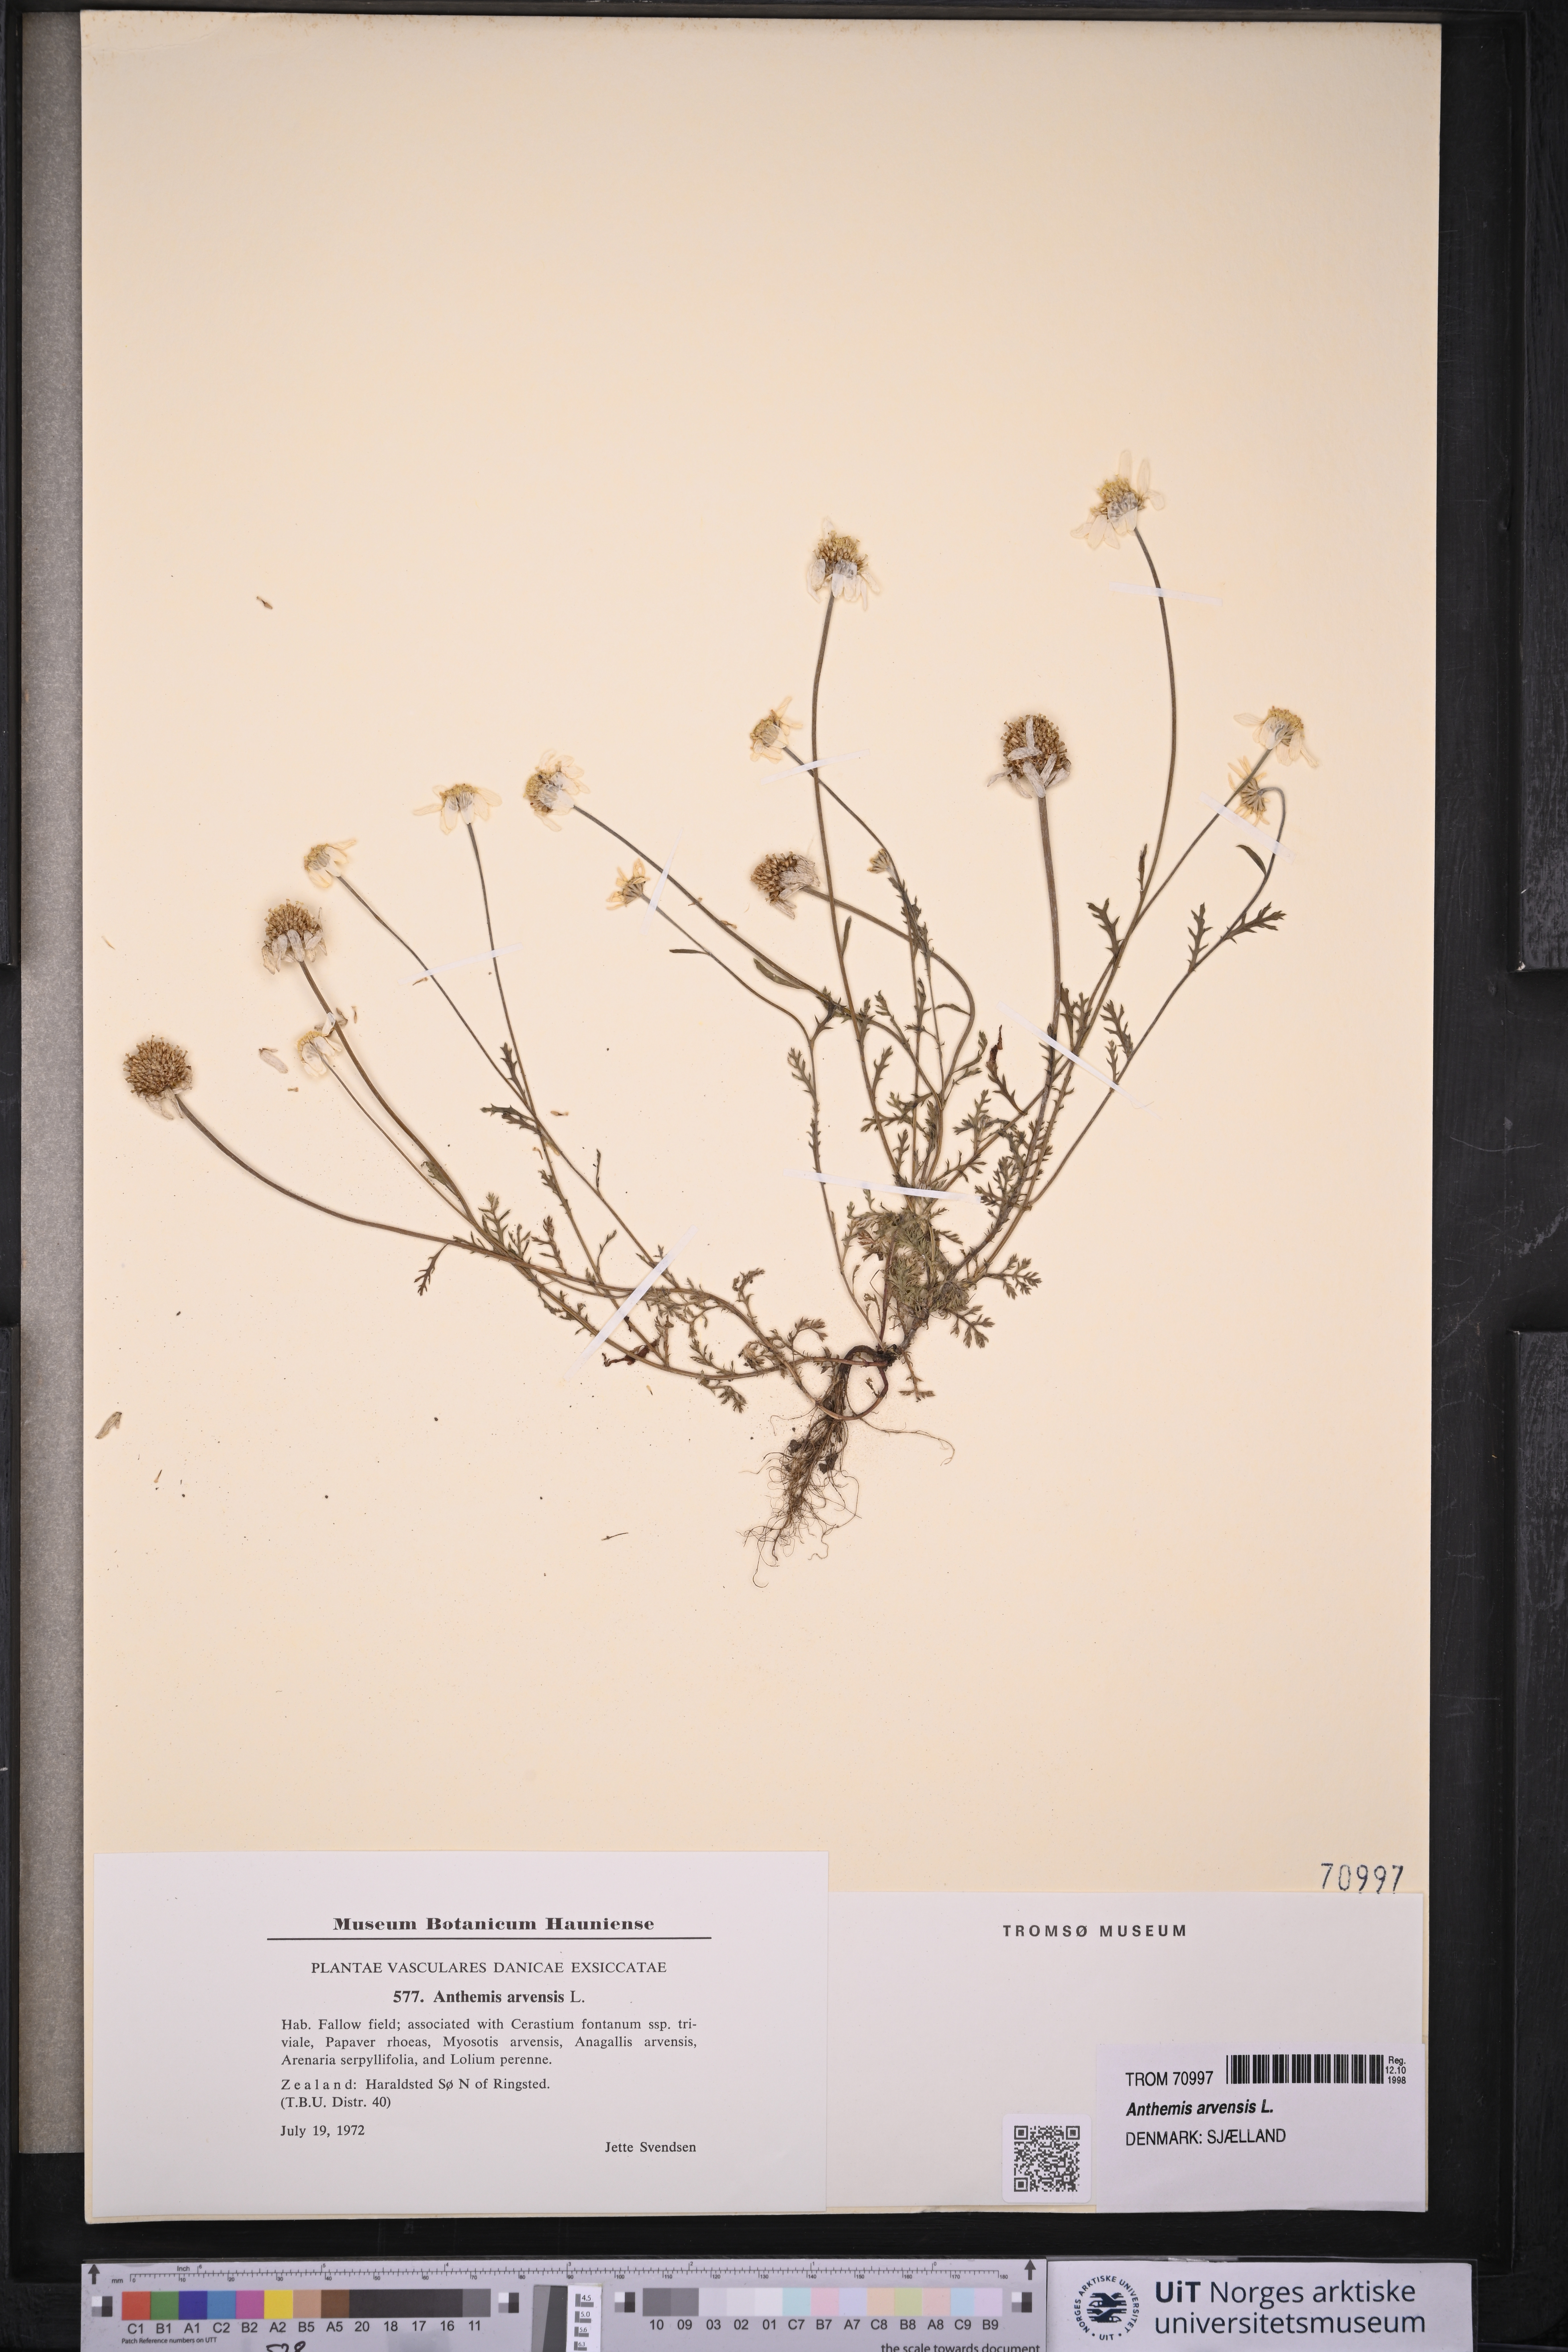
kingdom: Plantae
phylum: Tracheophyta
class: Magnoliopsida
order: Asterales
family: Asteraceae
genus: Anthemis
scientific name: Anthemis arvensis
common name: Corn chamomile
